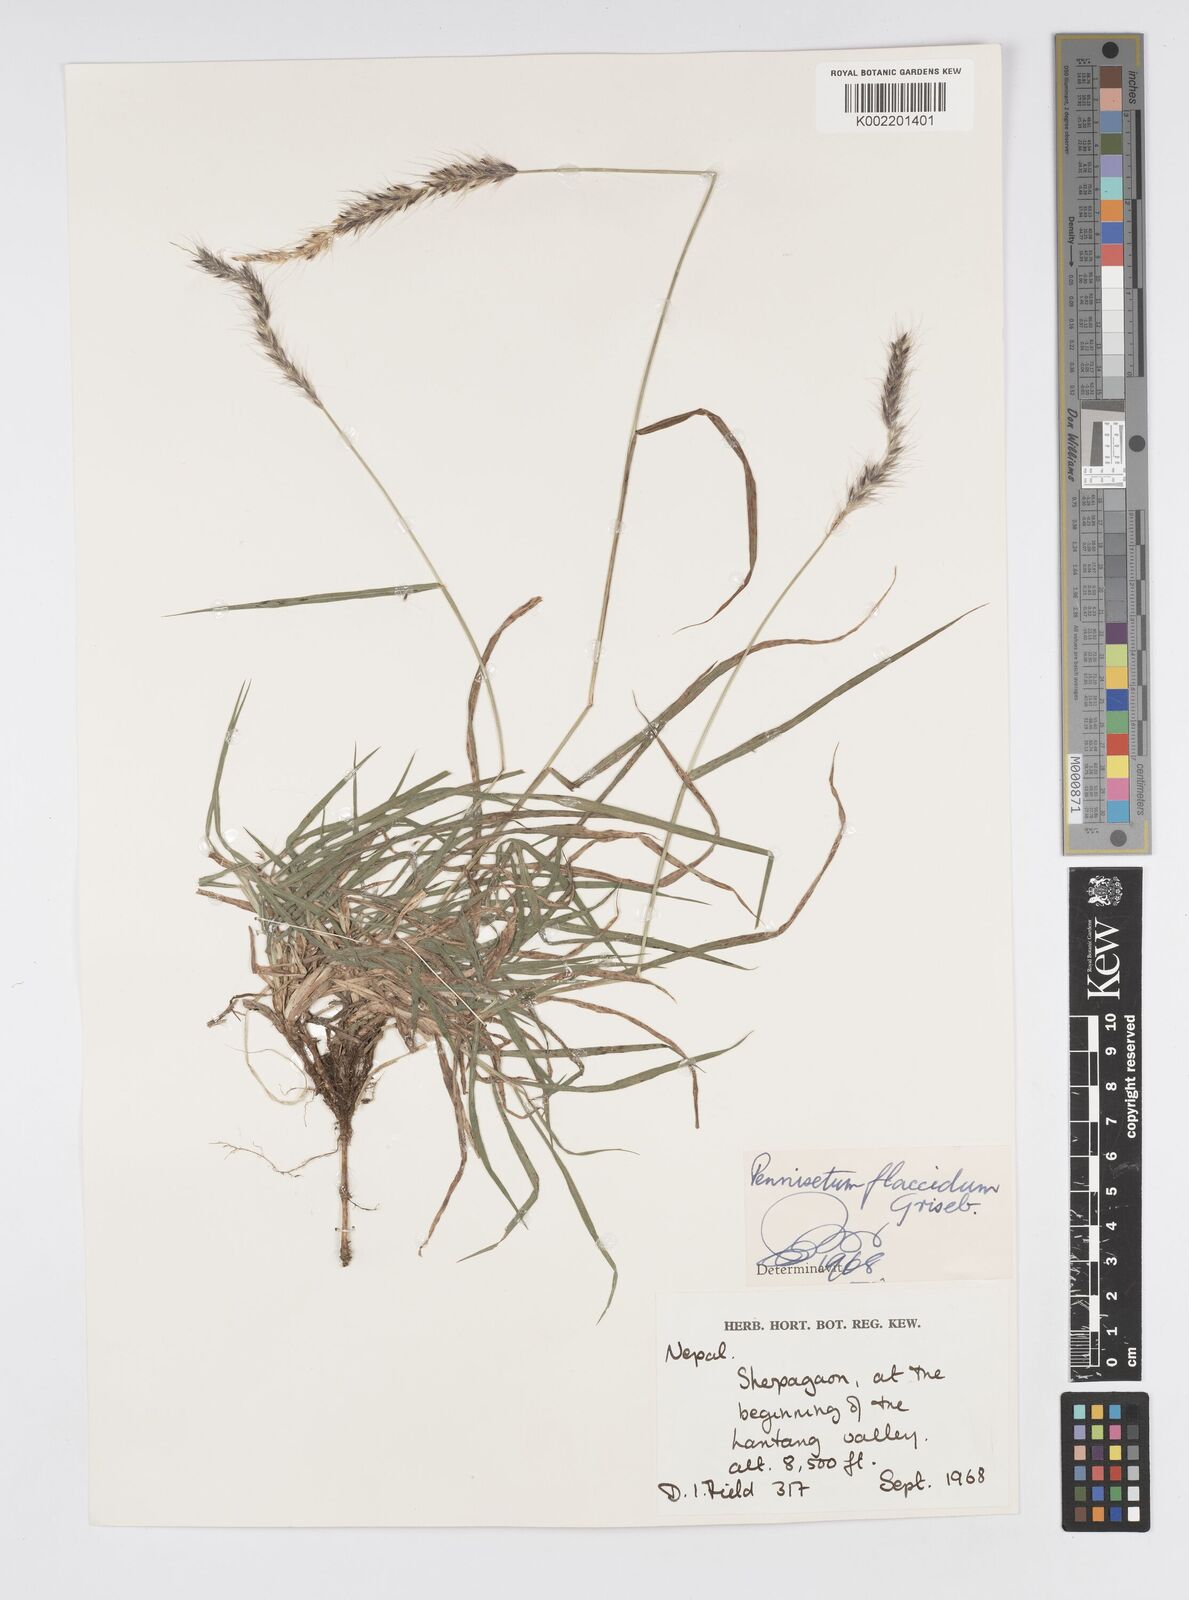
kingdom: Plantae
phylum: Tracheophyta
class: Liliopsida
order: Poales
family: Poaceae
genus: Cenchrus
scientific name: Cenchrus flaccidus
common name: Flaccid grass
